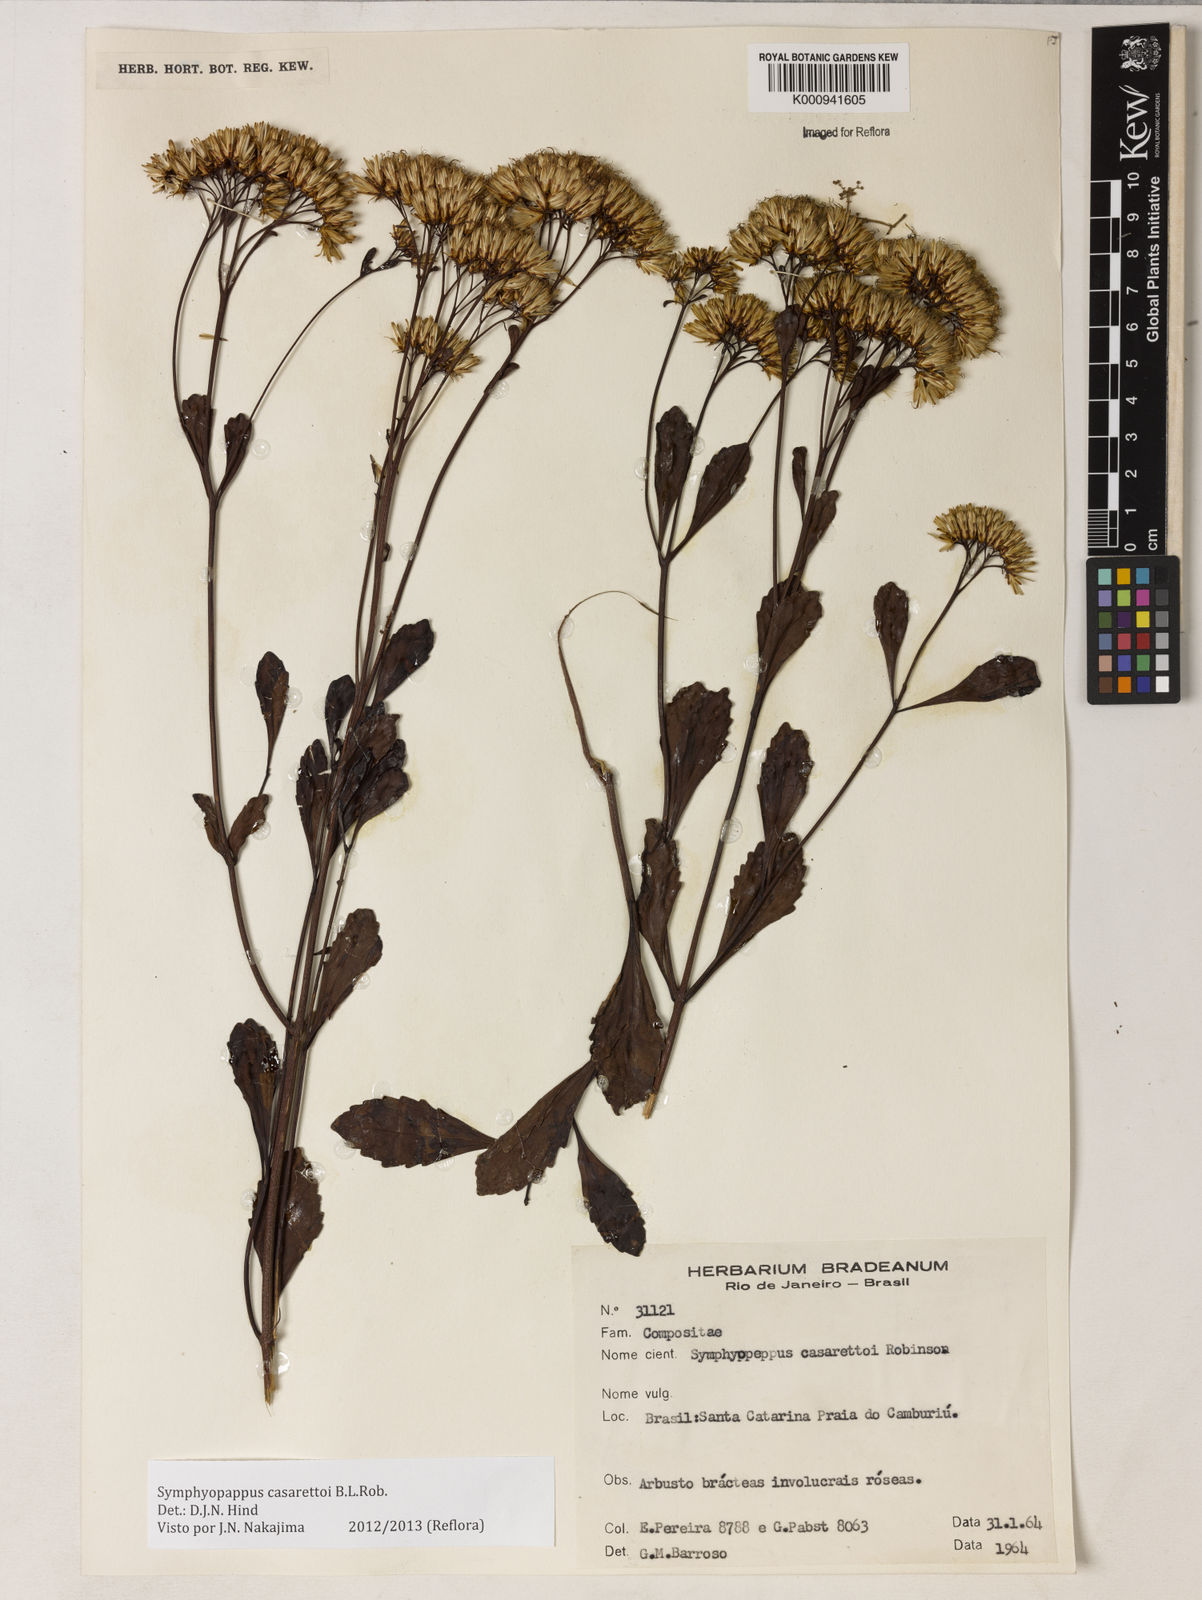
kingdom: Plantae
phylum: Tracheophyta
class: Magnoliopsida
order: Asterales
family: Asteraceae
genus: Symphyopappus
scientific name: Symphyopappus casarettoi
